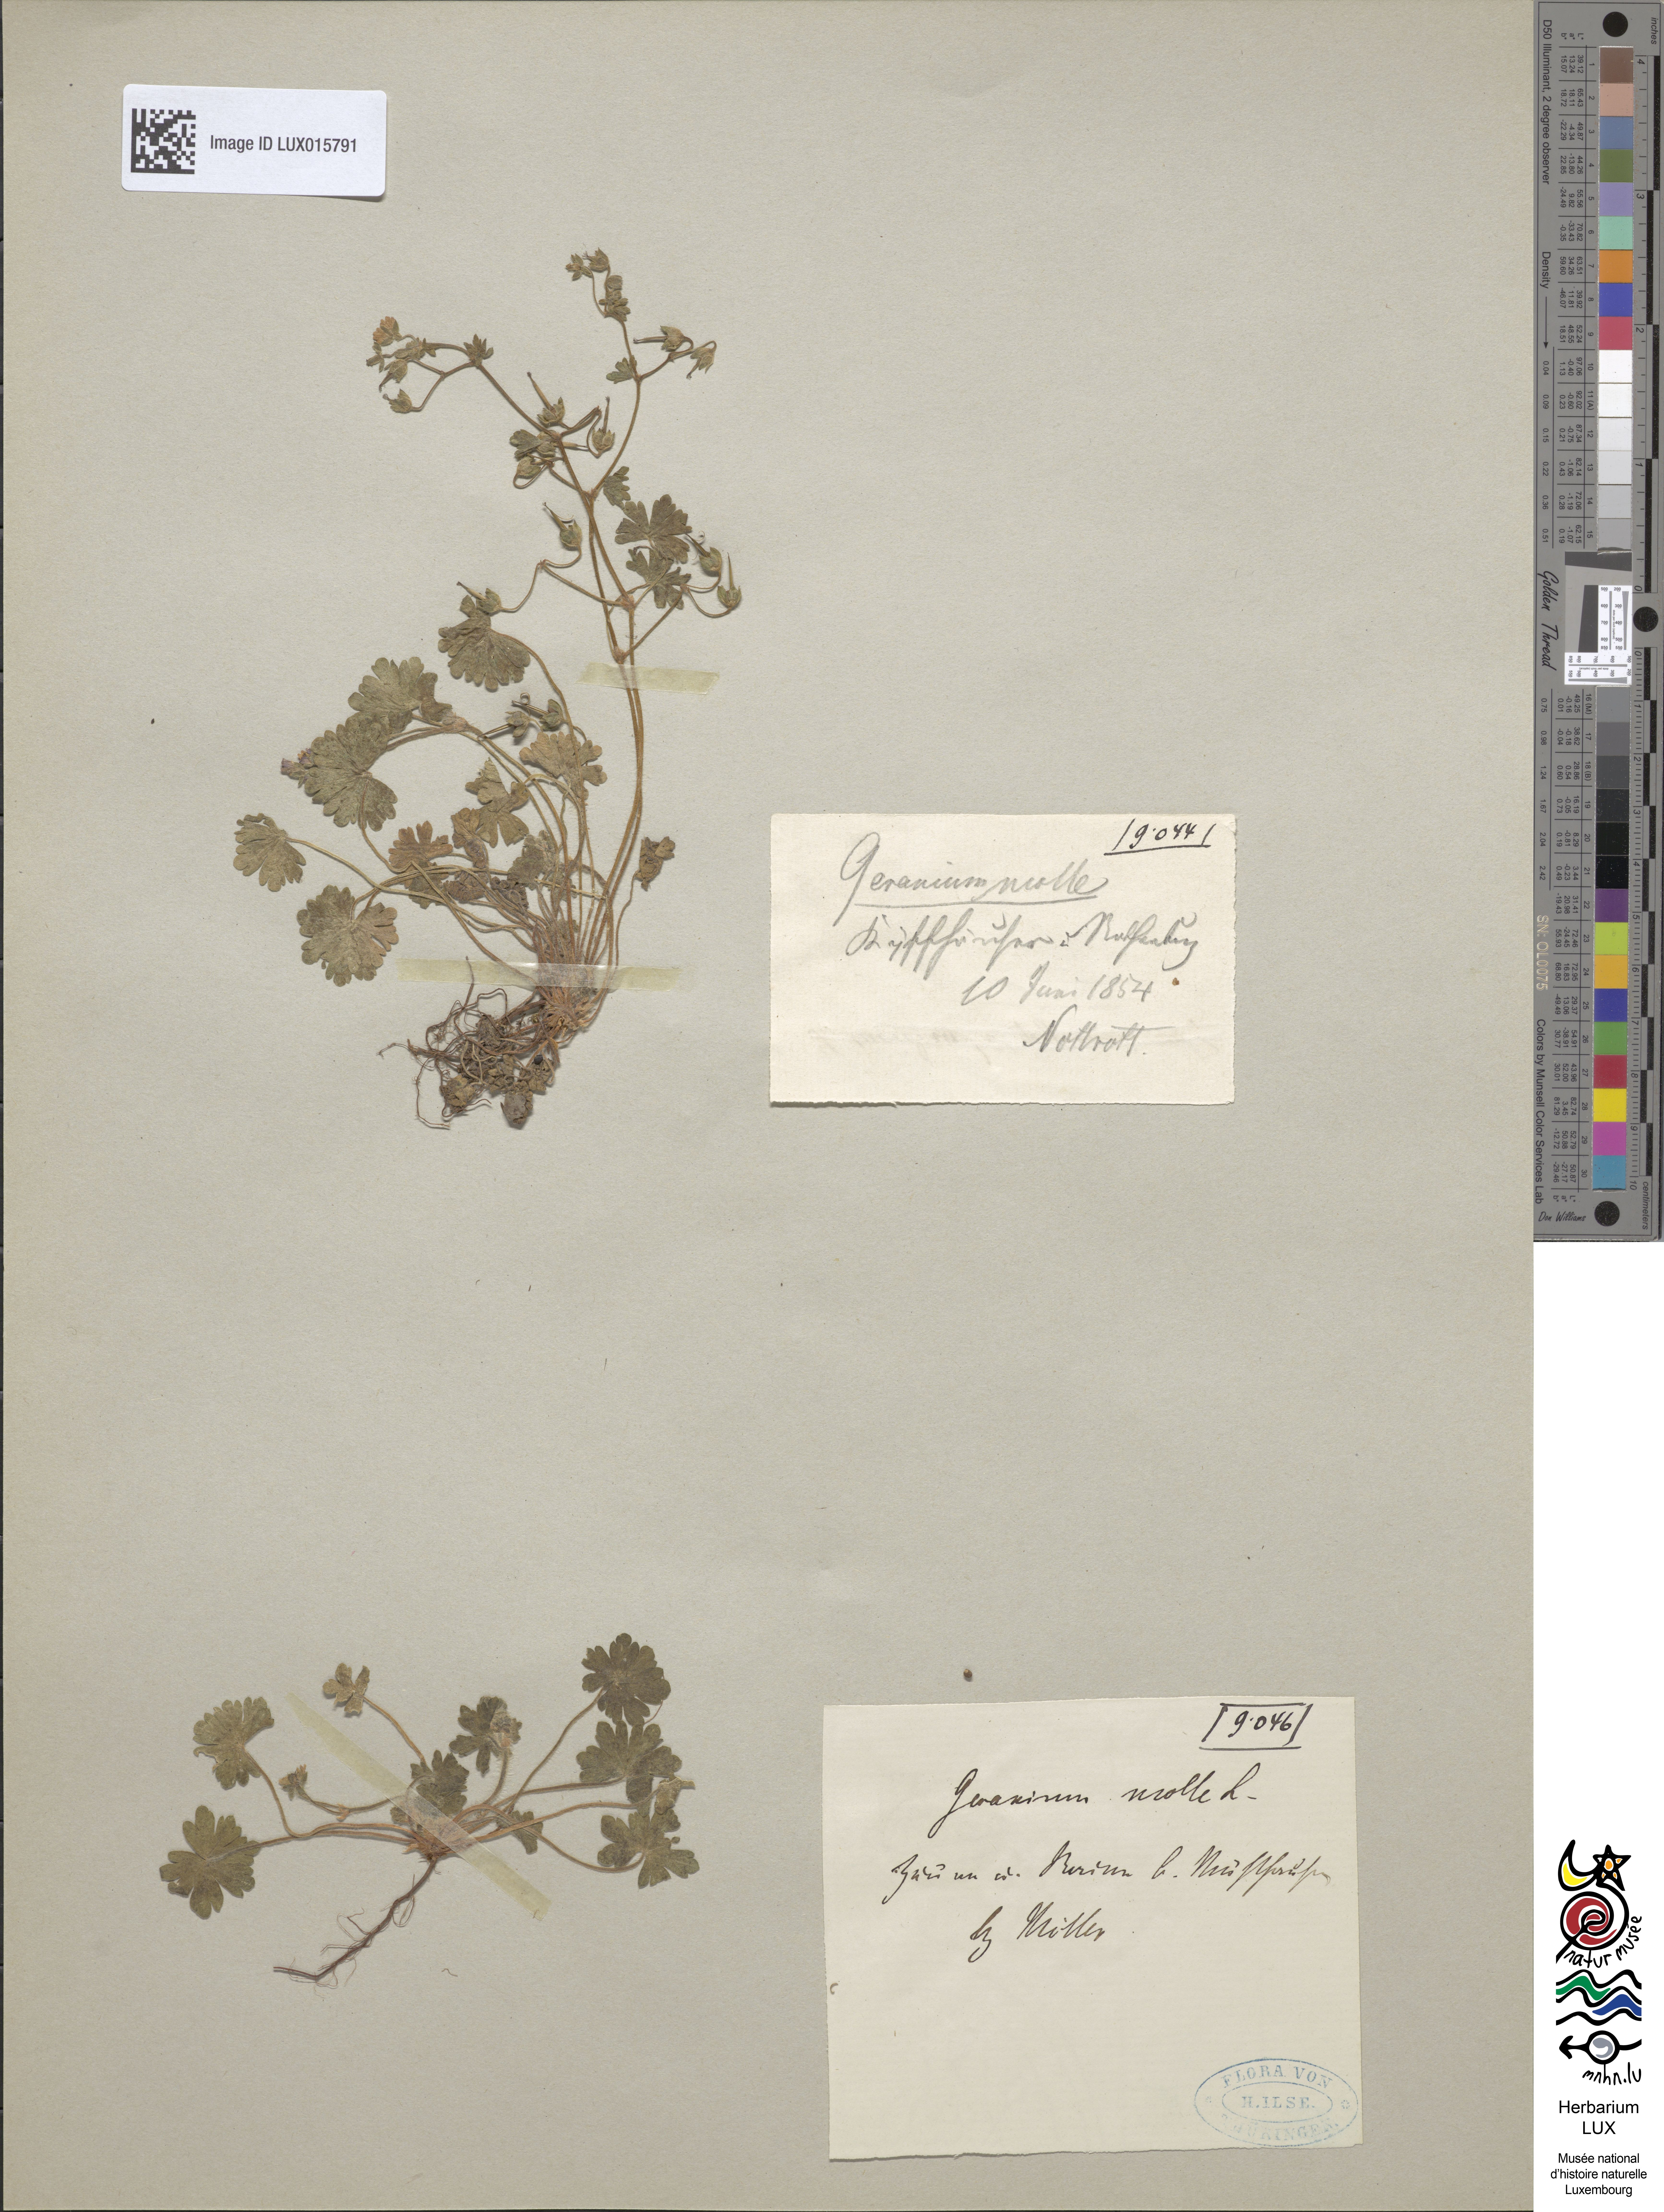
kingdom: Plantae
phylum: Tracheophyta
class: Magnoliopsida
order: Geraniales
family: Geraniaceae
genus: Geranium
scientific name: Geranium molle
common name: Dove's-foot crane's-bill
